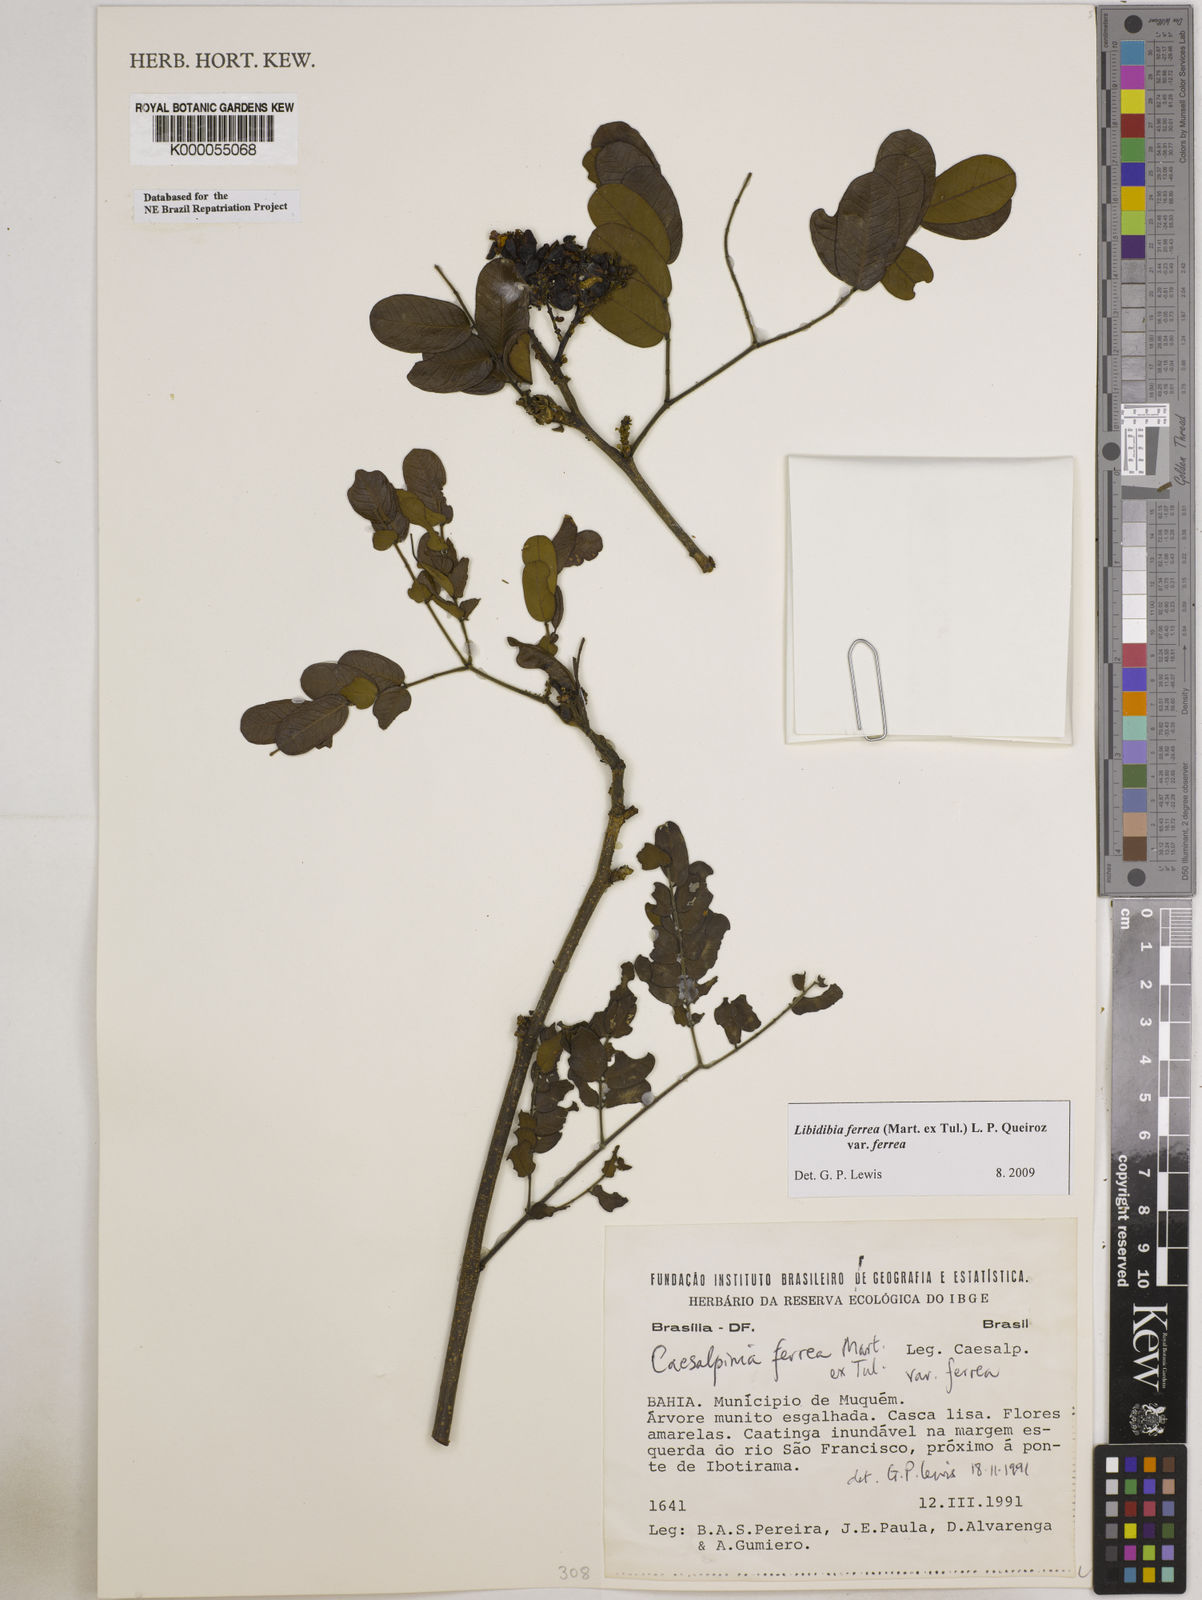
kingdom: Plantae
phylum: Tracheophyta
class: Magnoliopsida
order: Fabales
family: Fabaceae
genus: Libidibia
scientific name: Libidibia ferrea
